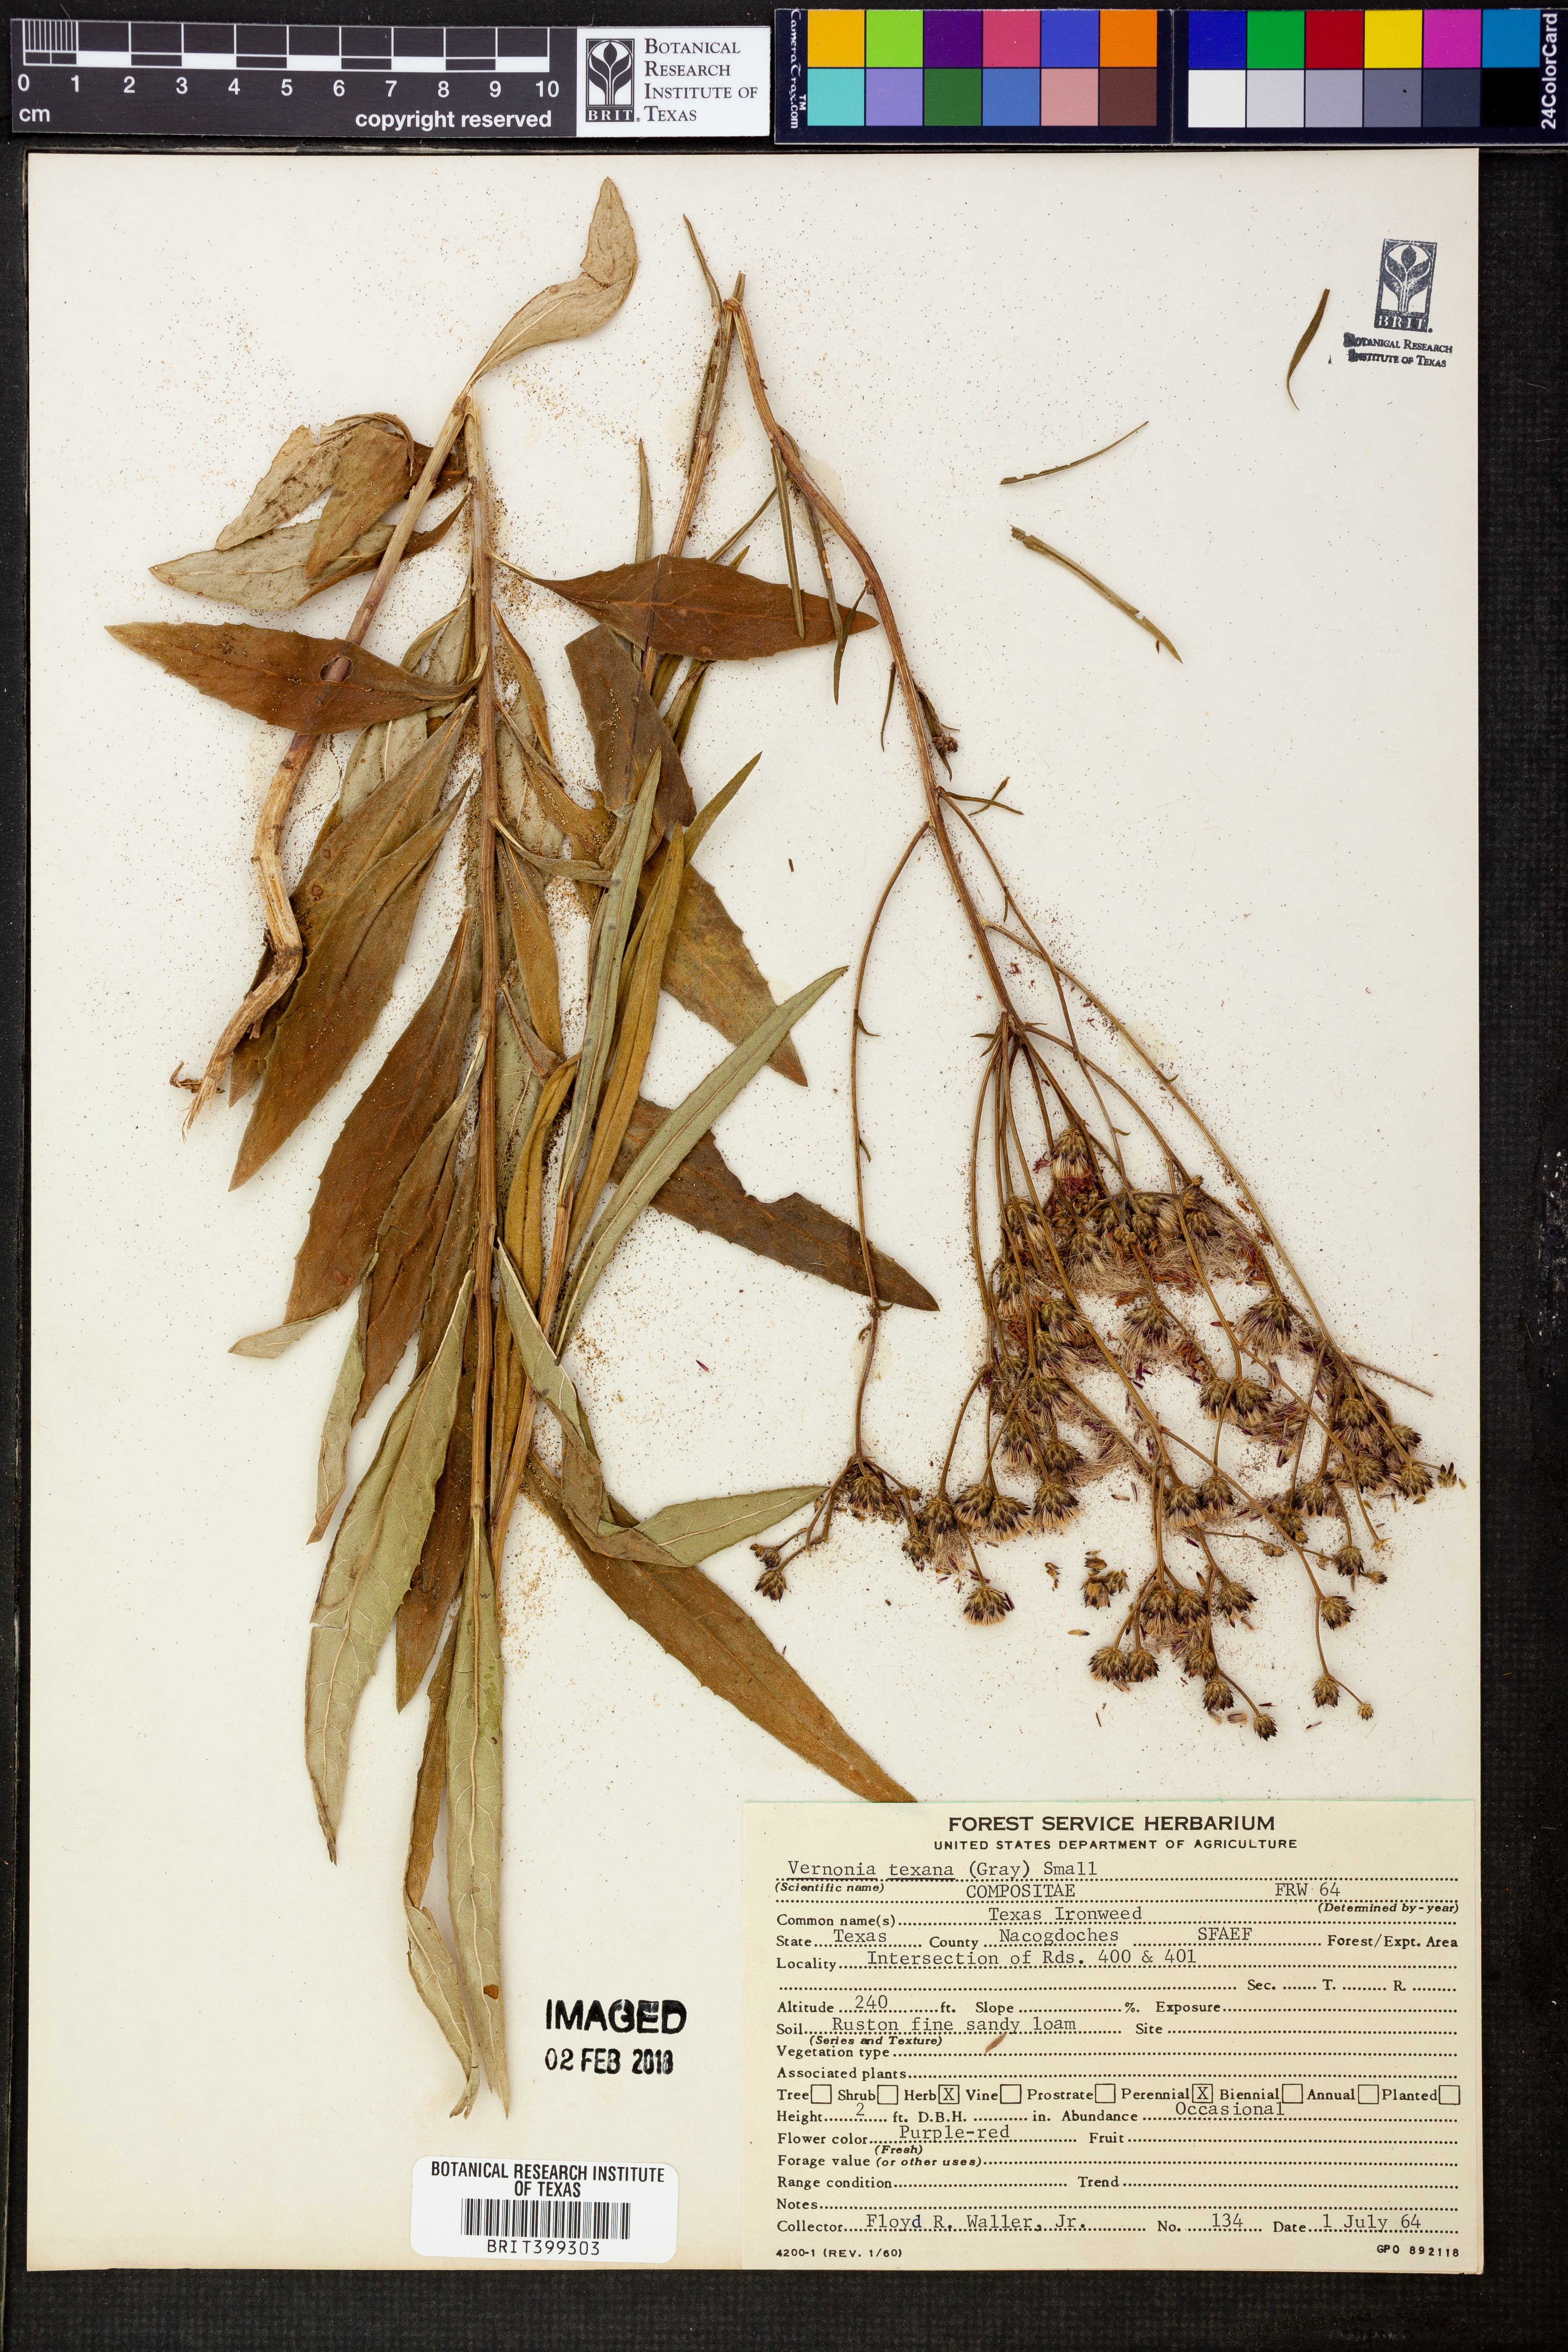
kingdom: Plantae
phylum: Tracheophyta
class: Magnoliopsida
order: Asterales
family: Asteraceae
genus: Vernonia
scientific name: Vernonia texana
